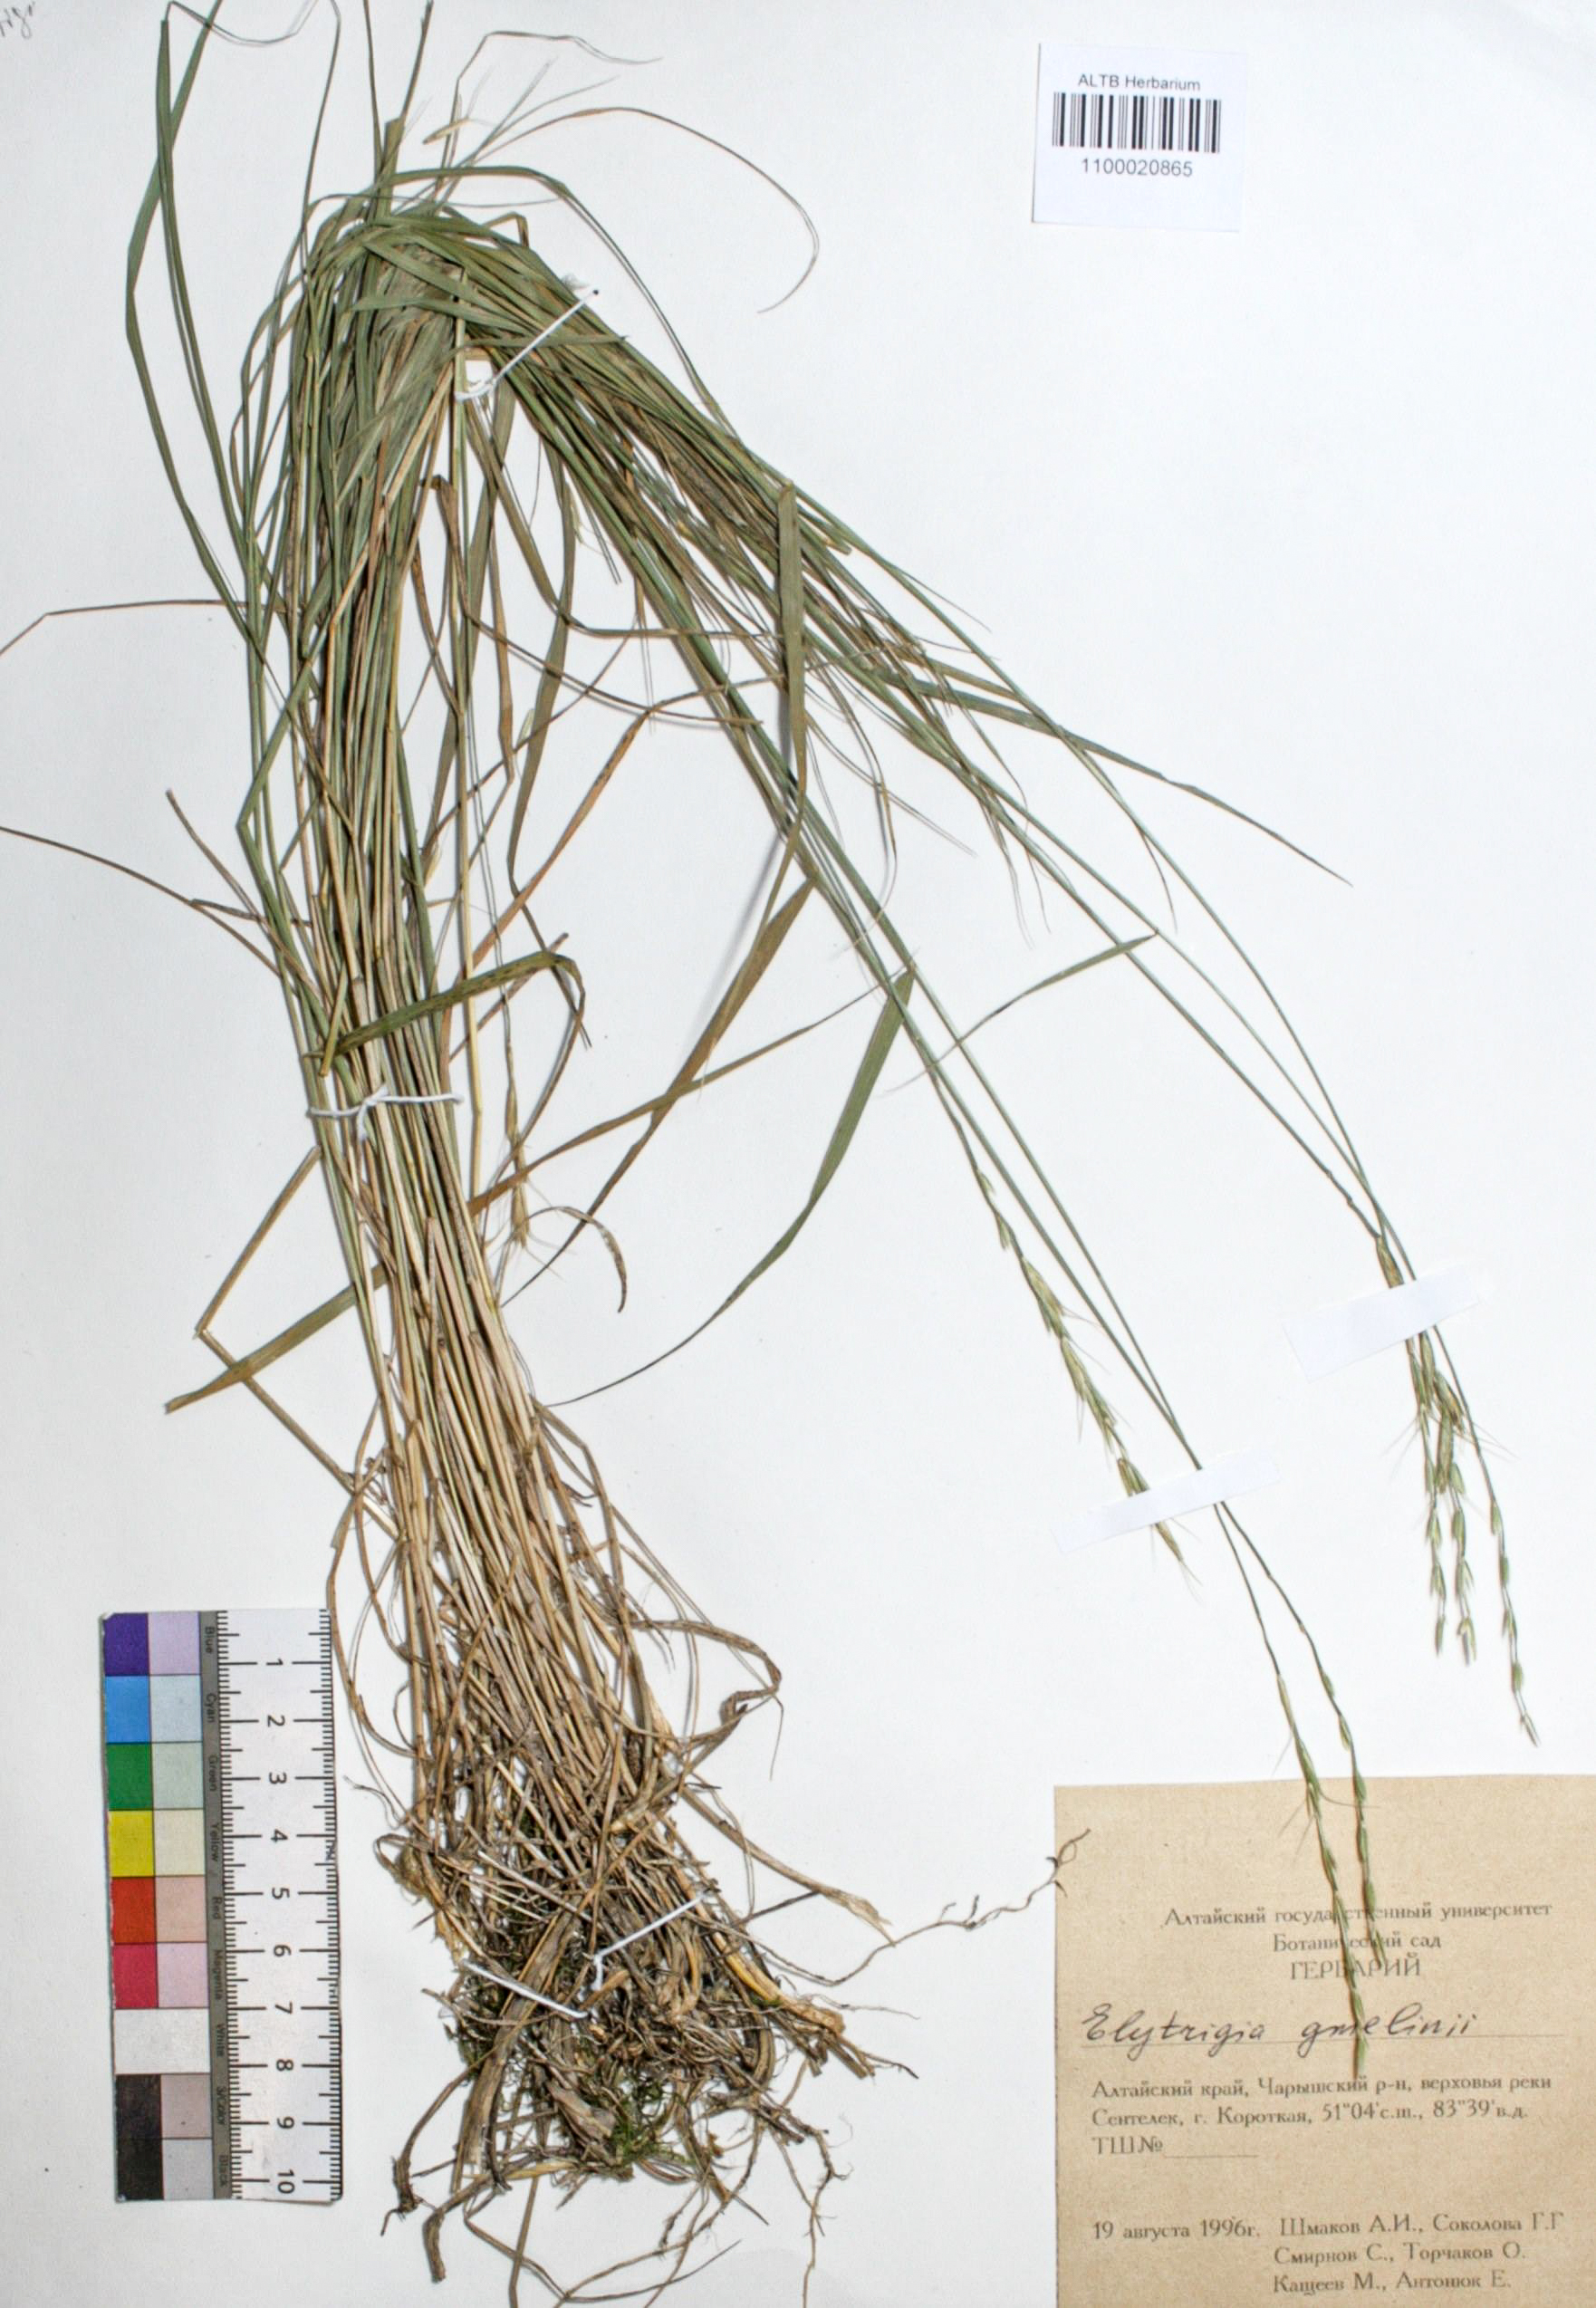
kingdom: Plantae
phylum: Tracheophyta
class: Liliopsida
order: Poales
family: Poaceae
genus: Pseudoroegneria
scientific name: Pseudoroegneria reflexiaristata
